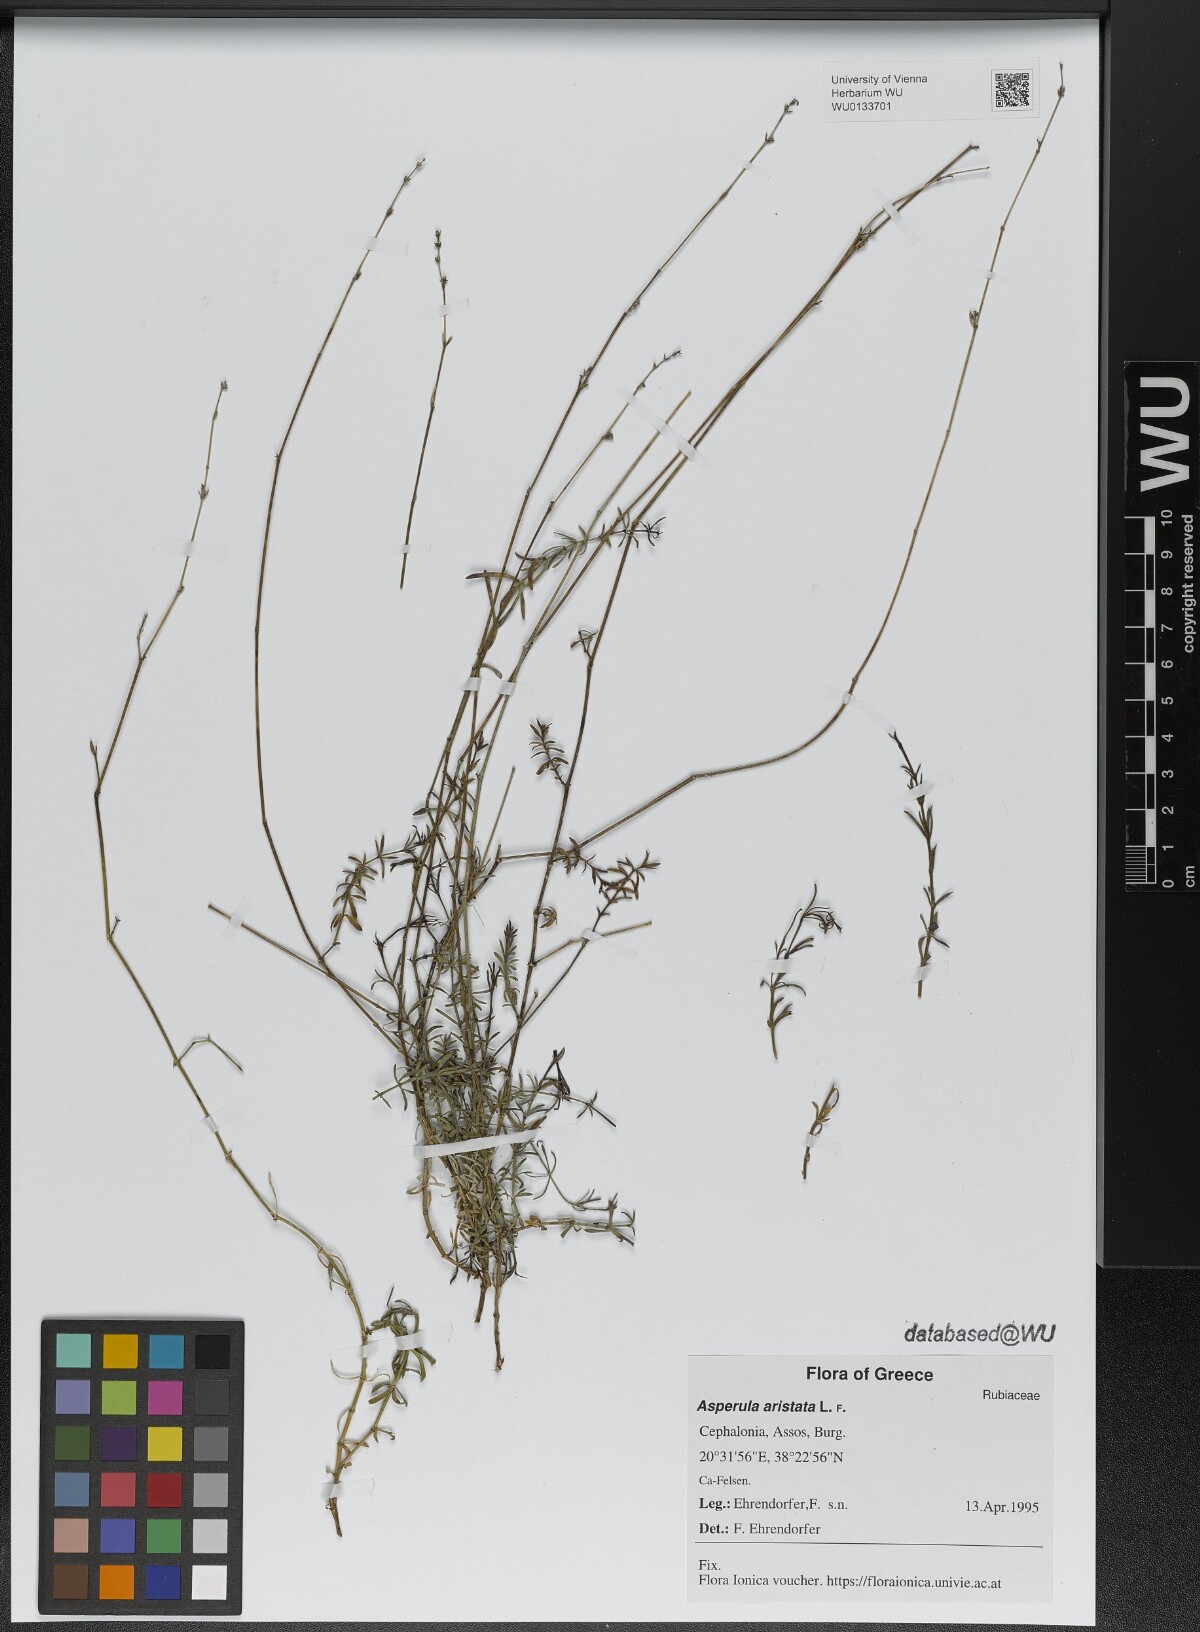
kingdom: Plantae
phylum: Tracheophyta
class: Magnoliopsida
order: Gentianales
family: Rubiaceae
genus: Cynanchica
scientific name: Cynanchica aristata
